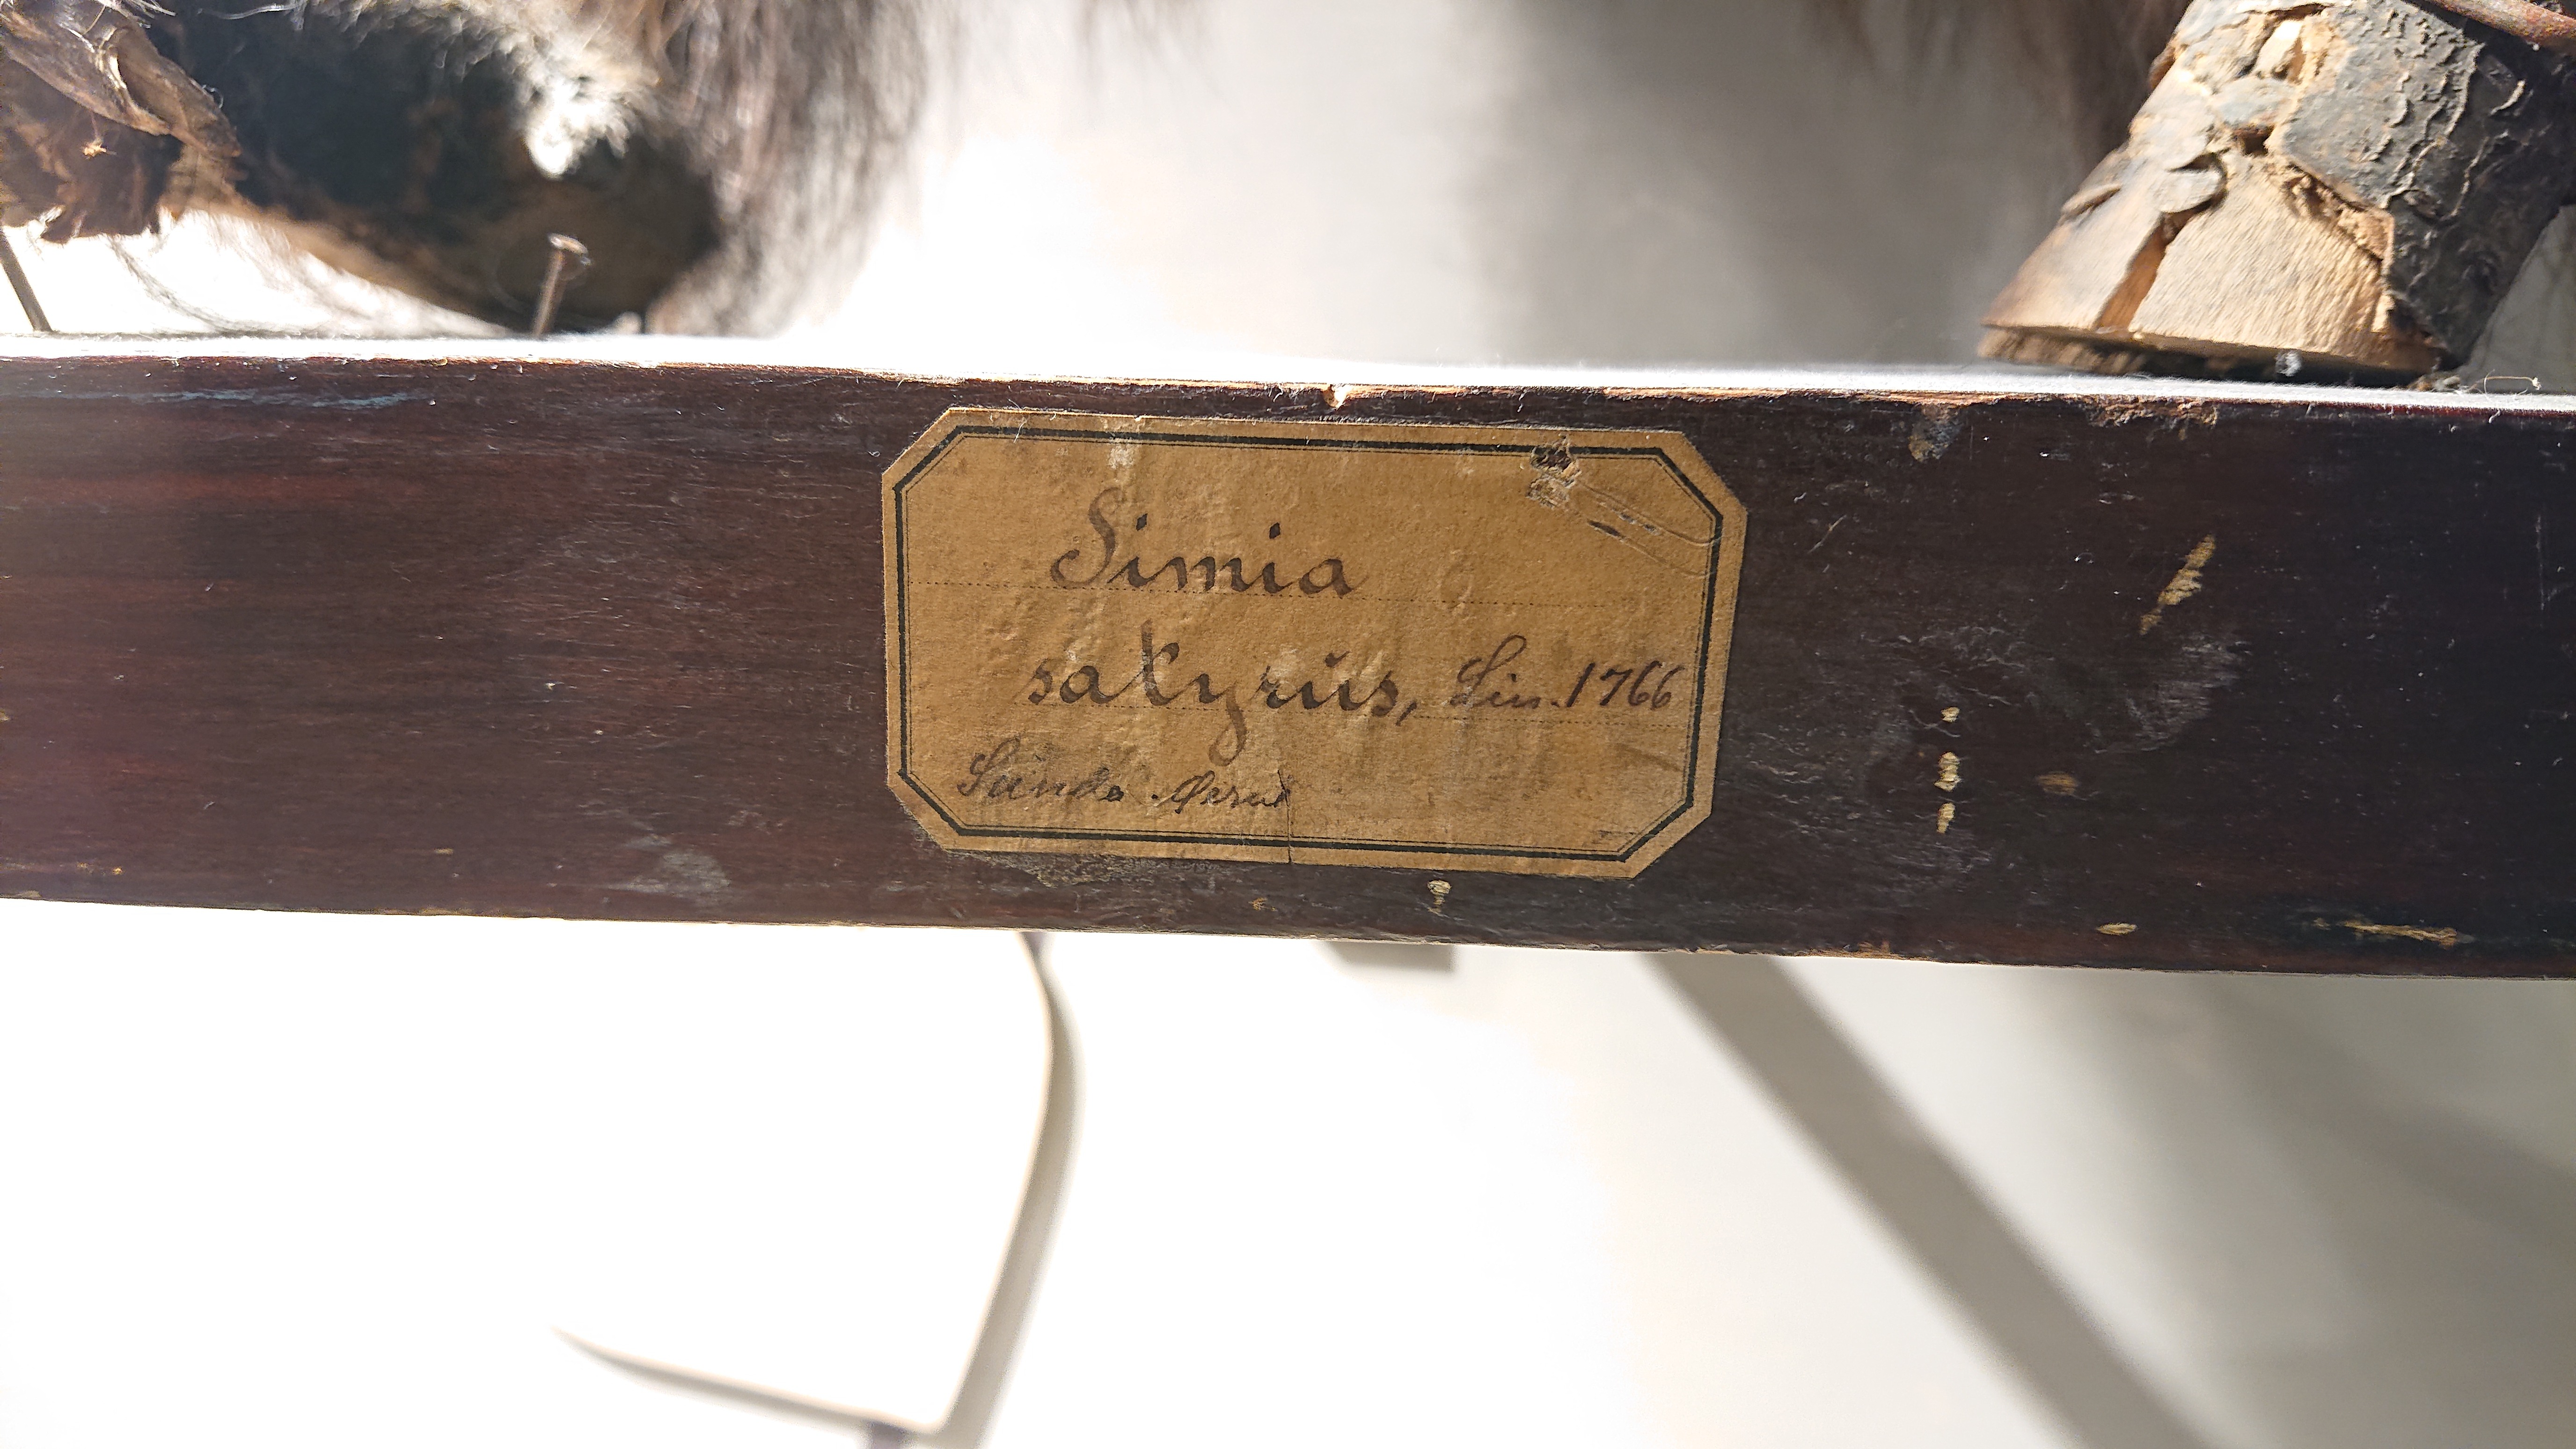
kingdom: Animalia
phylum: Chordata
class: Mammalia
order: Primates
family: Hominidae
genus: Pongo
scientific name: Pongo pygmaeus
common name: Bornean orangutan
